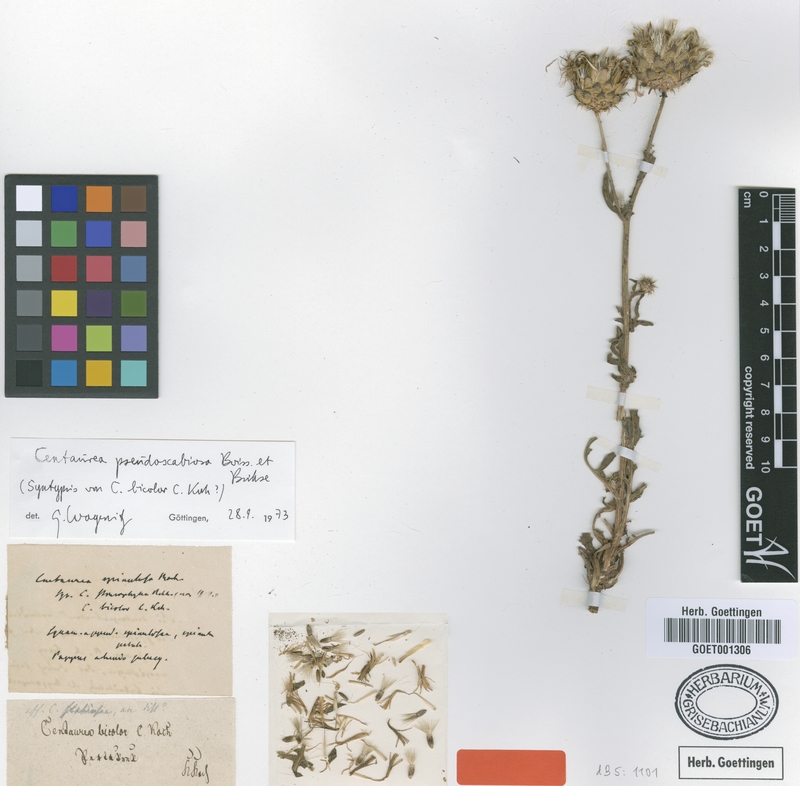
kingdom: Plantae
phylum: Tracheophyta
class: Magnoliopsida
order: Asterales
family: Asteraceae
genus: Centaurea
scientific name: Centaurea pseudoscabiosa
